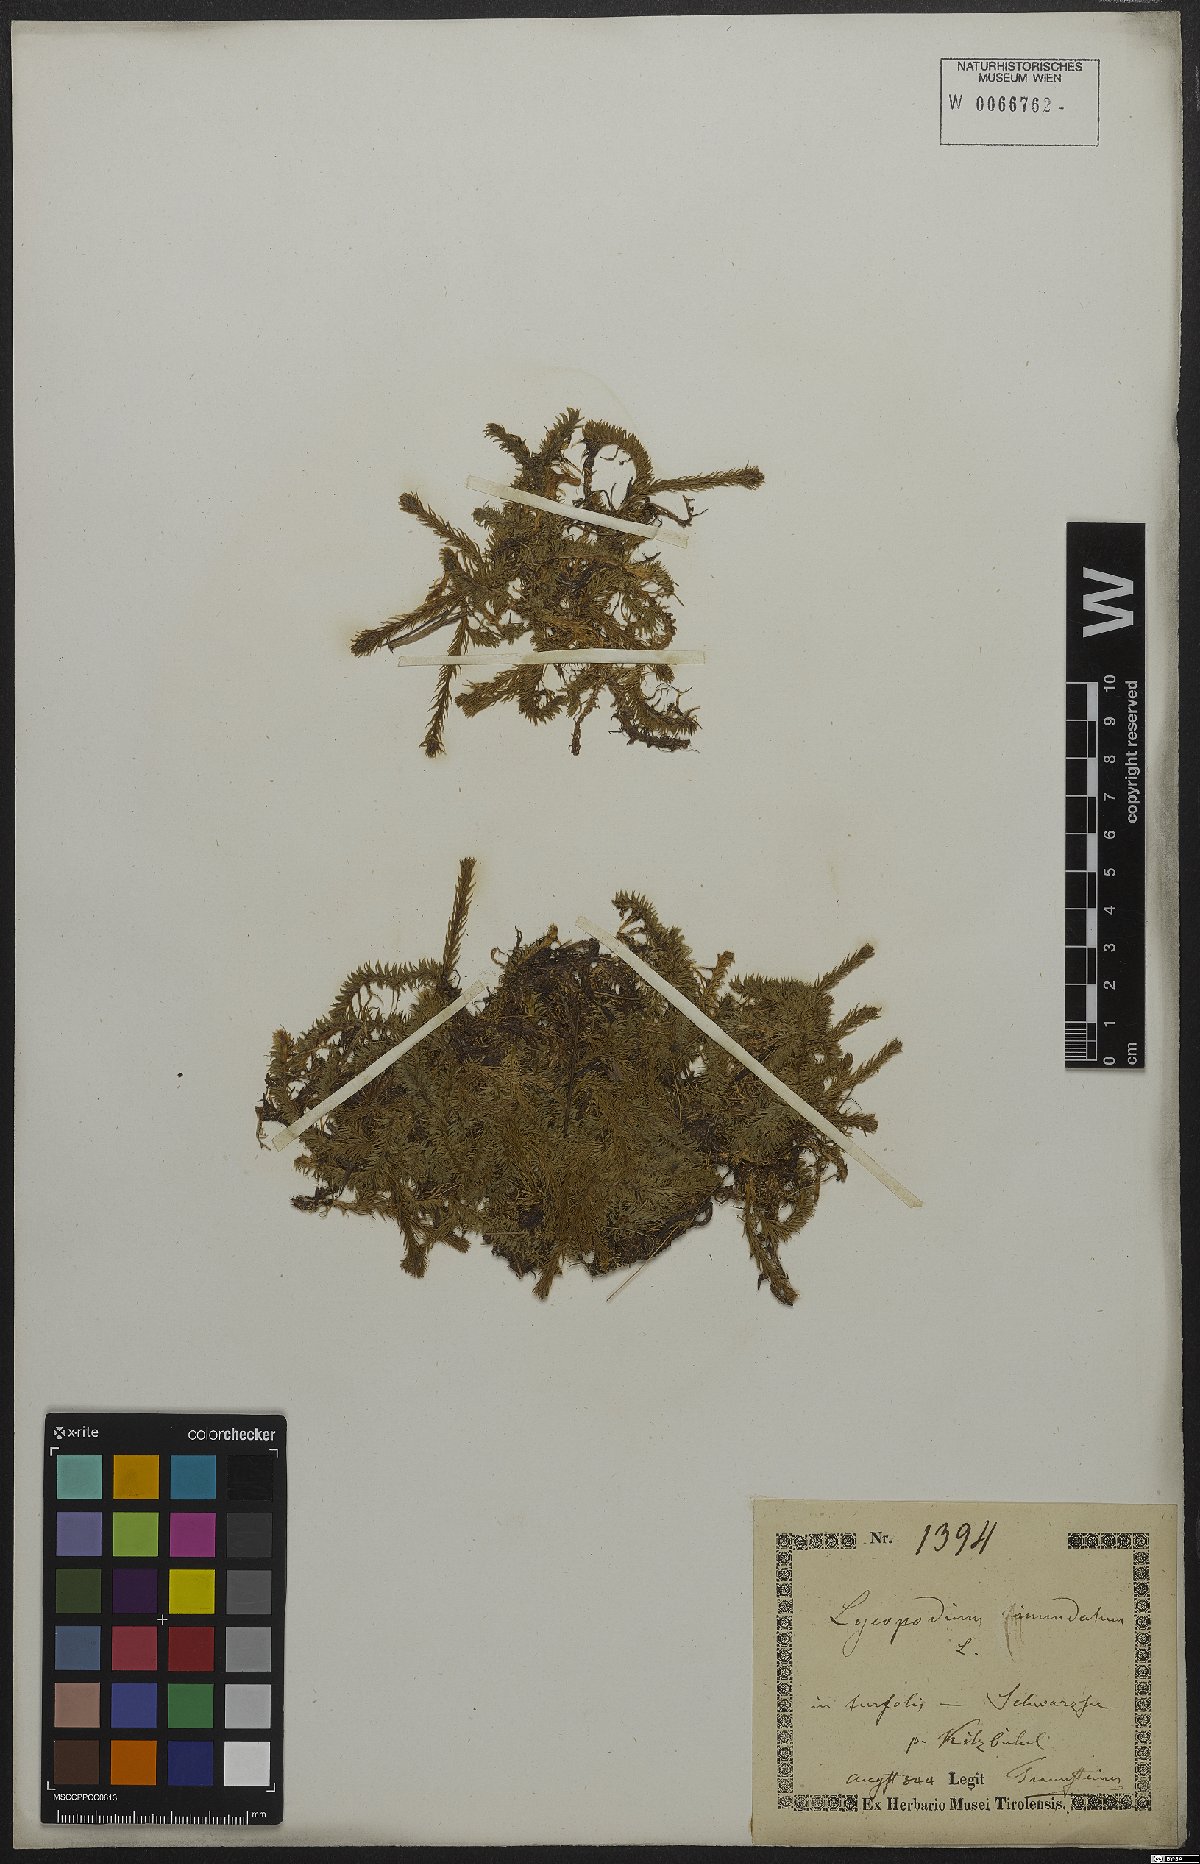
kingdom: Plantae
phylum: Tracheophyta
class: Lycopodiopsida
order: Lycopodiales
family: Lycopodiaceae
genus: Lycopodiella
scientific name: Lycopodiella inundata
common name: Marsh clubmoss
